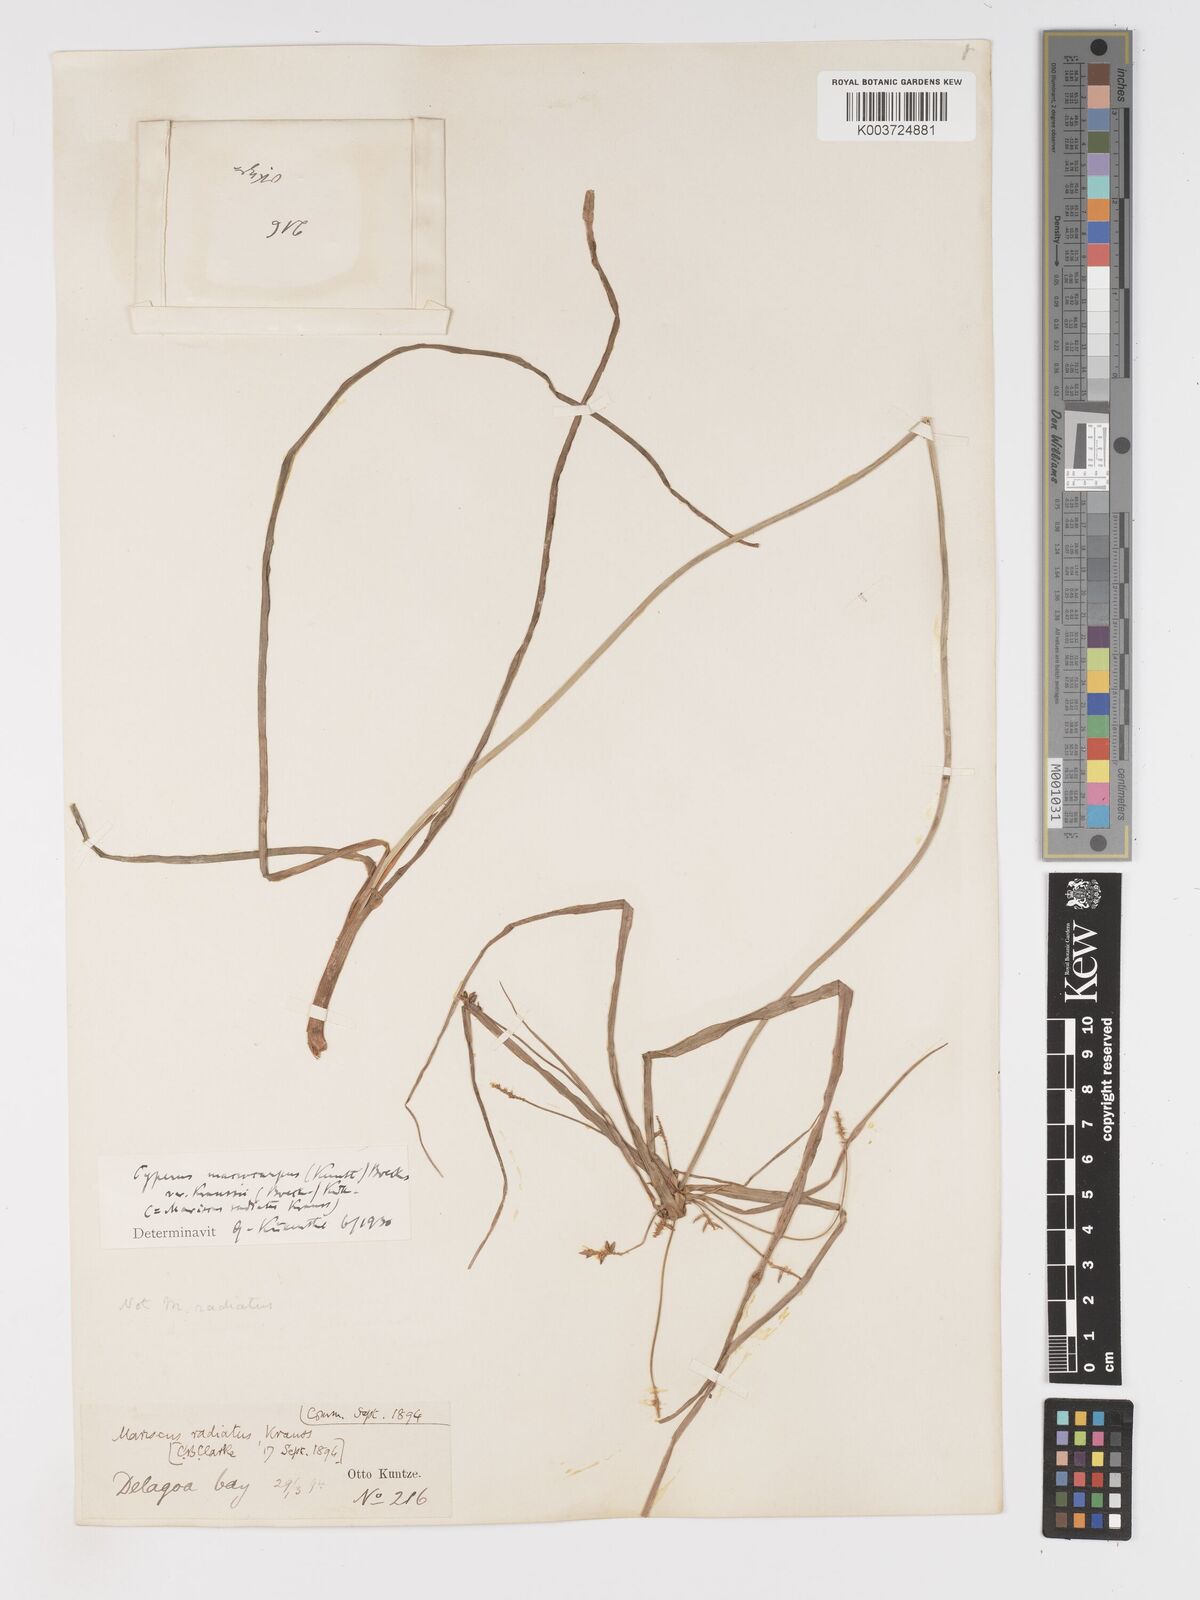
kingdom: Plantae
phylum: Tracheophyta
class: Liliopsida
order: Poales
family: Cyperaceae
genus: Cyperus
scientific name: Cyperus macrocarpus
